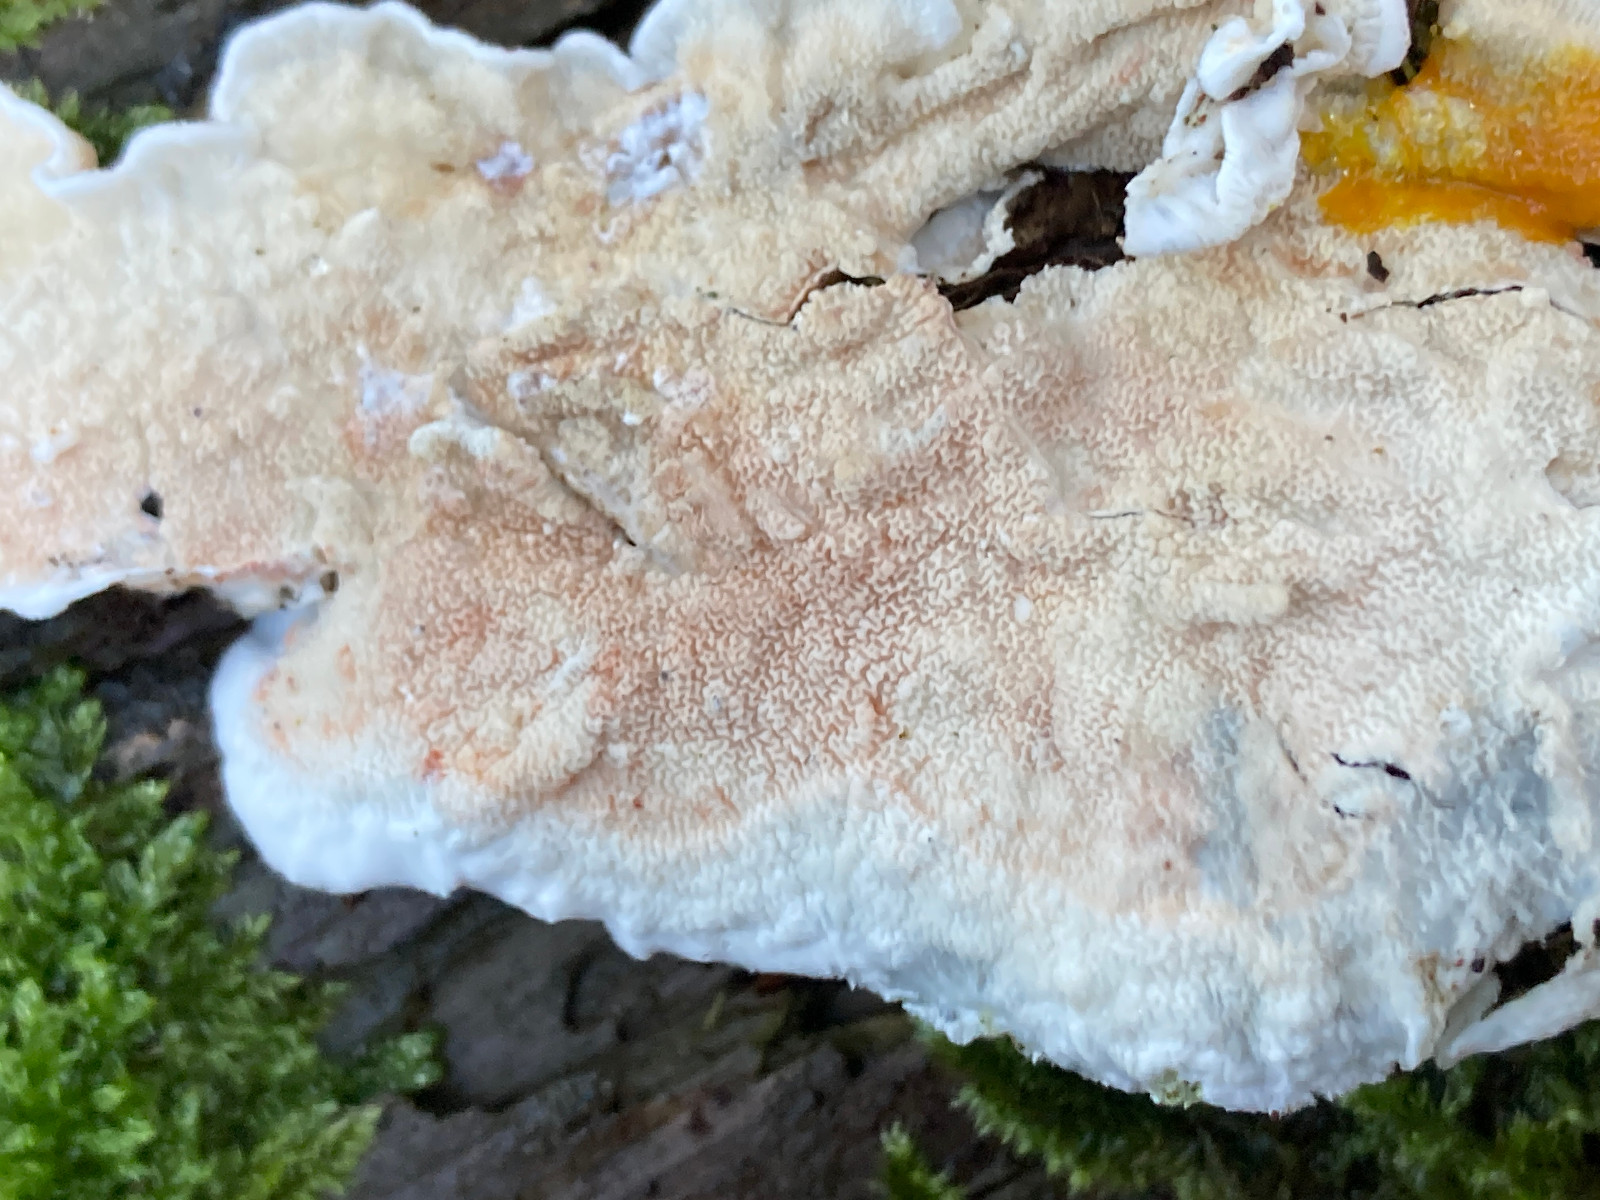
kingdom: Fungi
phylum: Basidiomycota
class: Agaricomycetes
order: Polyporales
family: Irpicaceae
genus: Byssomerulius
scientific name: Byssomerulius corium
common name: læder-åresvamp
